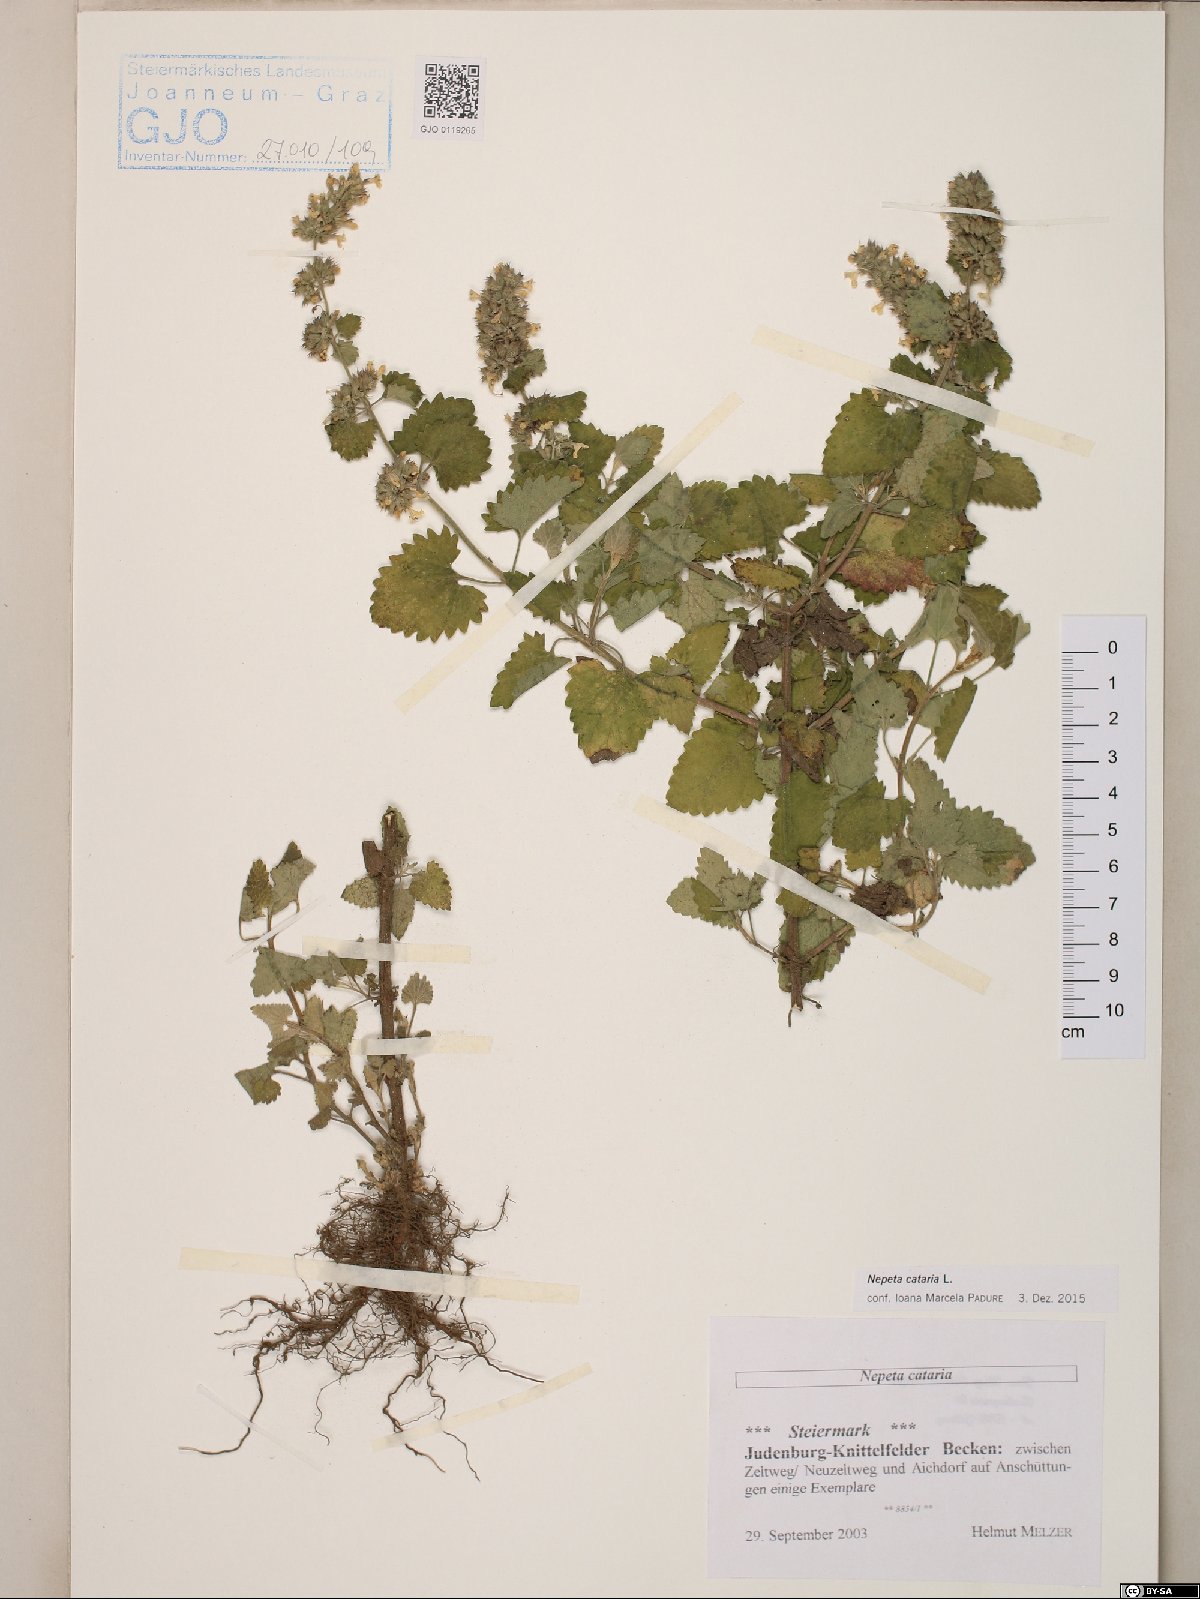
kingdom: Plantae
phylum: Tracheophyta
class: Magnoliopsida
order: Lamiales
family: Lamiaceae
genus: Nepeta
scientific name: Nepeta cataria
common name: Catnip
